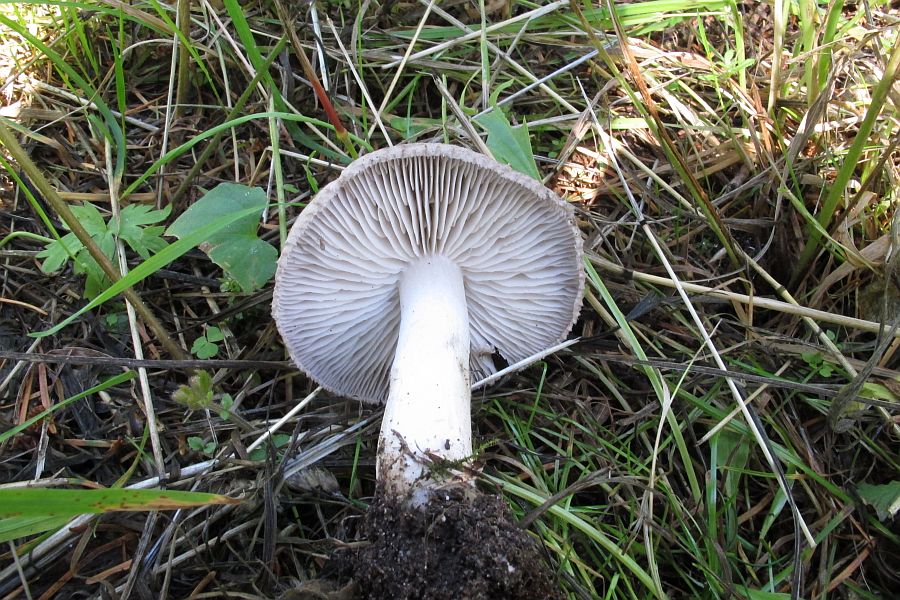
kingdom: Fungi
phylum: Basidiomycota
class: Agaricomycetes
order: Agaricales
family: Tricholomataceae
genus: Tricholoma
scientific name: Tricholoma terreum
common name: jordfarvet ridderhat
